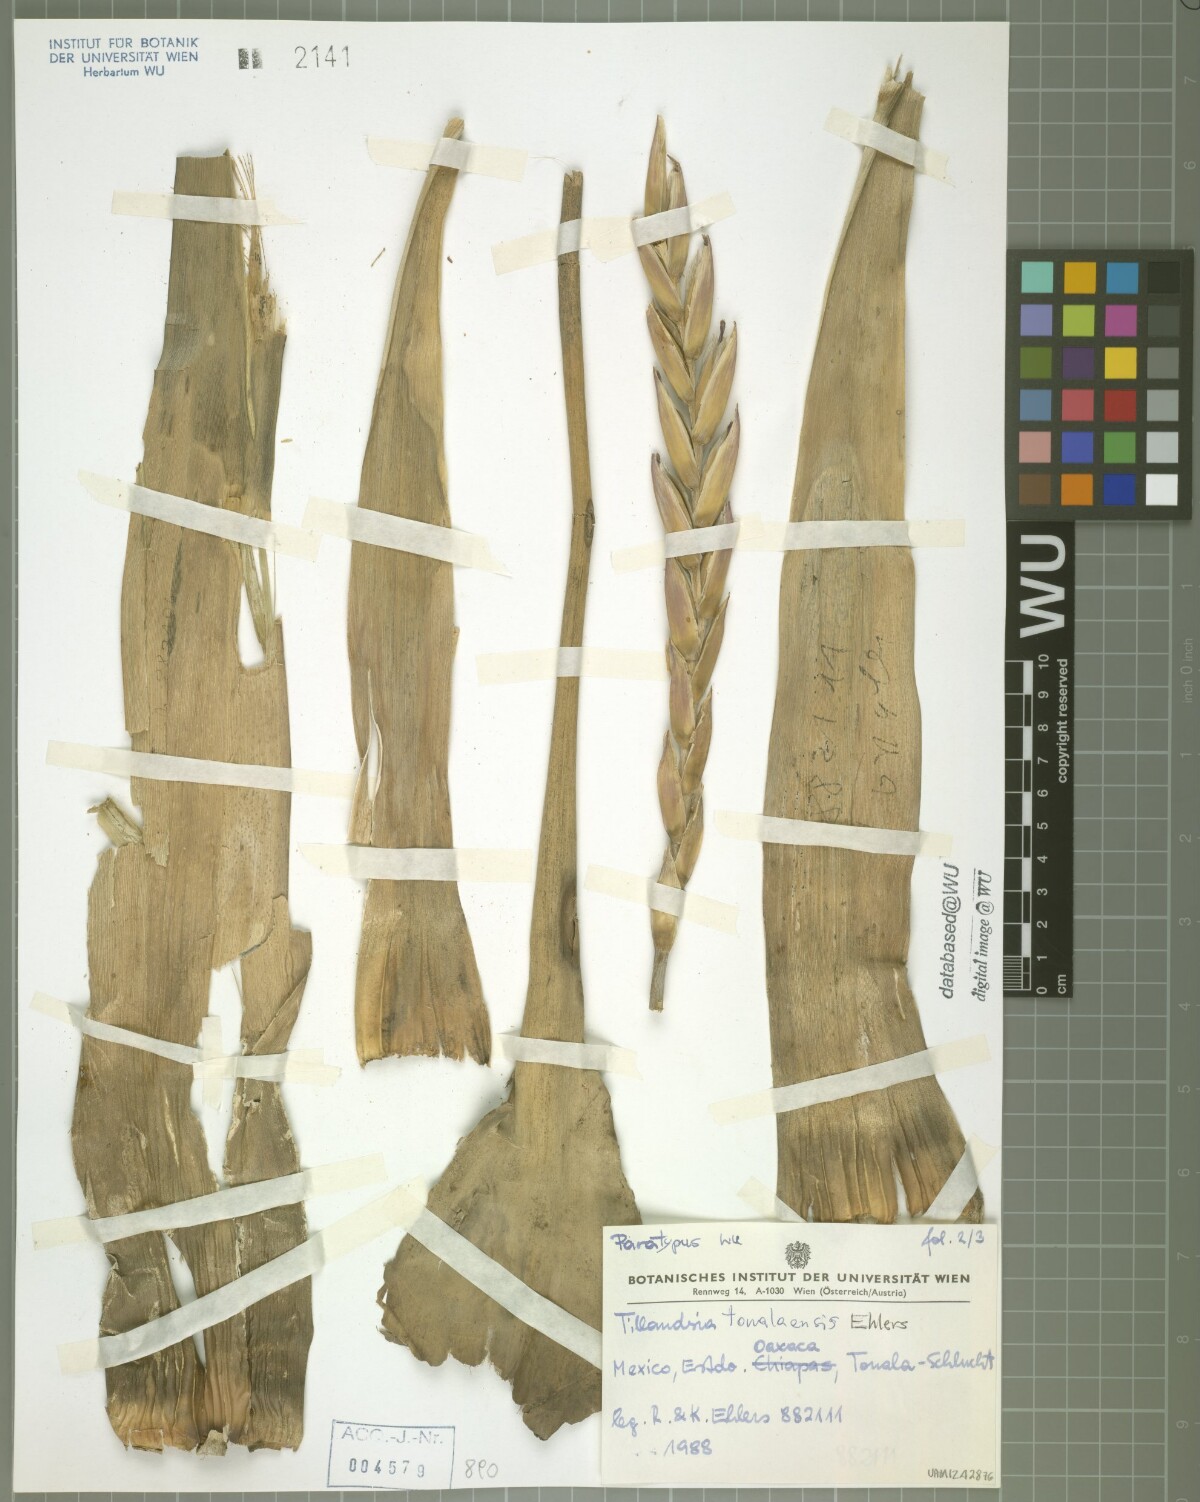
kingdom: Plantae
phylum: Tracheophyta
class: Liliopsida
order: Poales
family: Bromeliaceae
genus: Tillandsia
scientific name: Tillandsia tonalaensis
